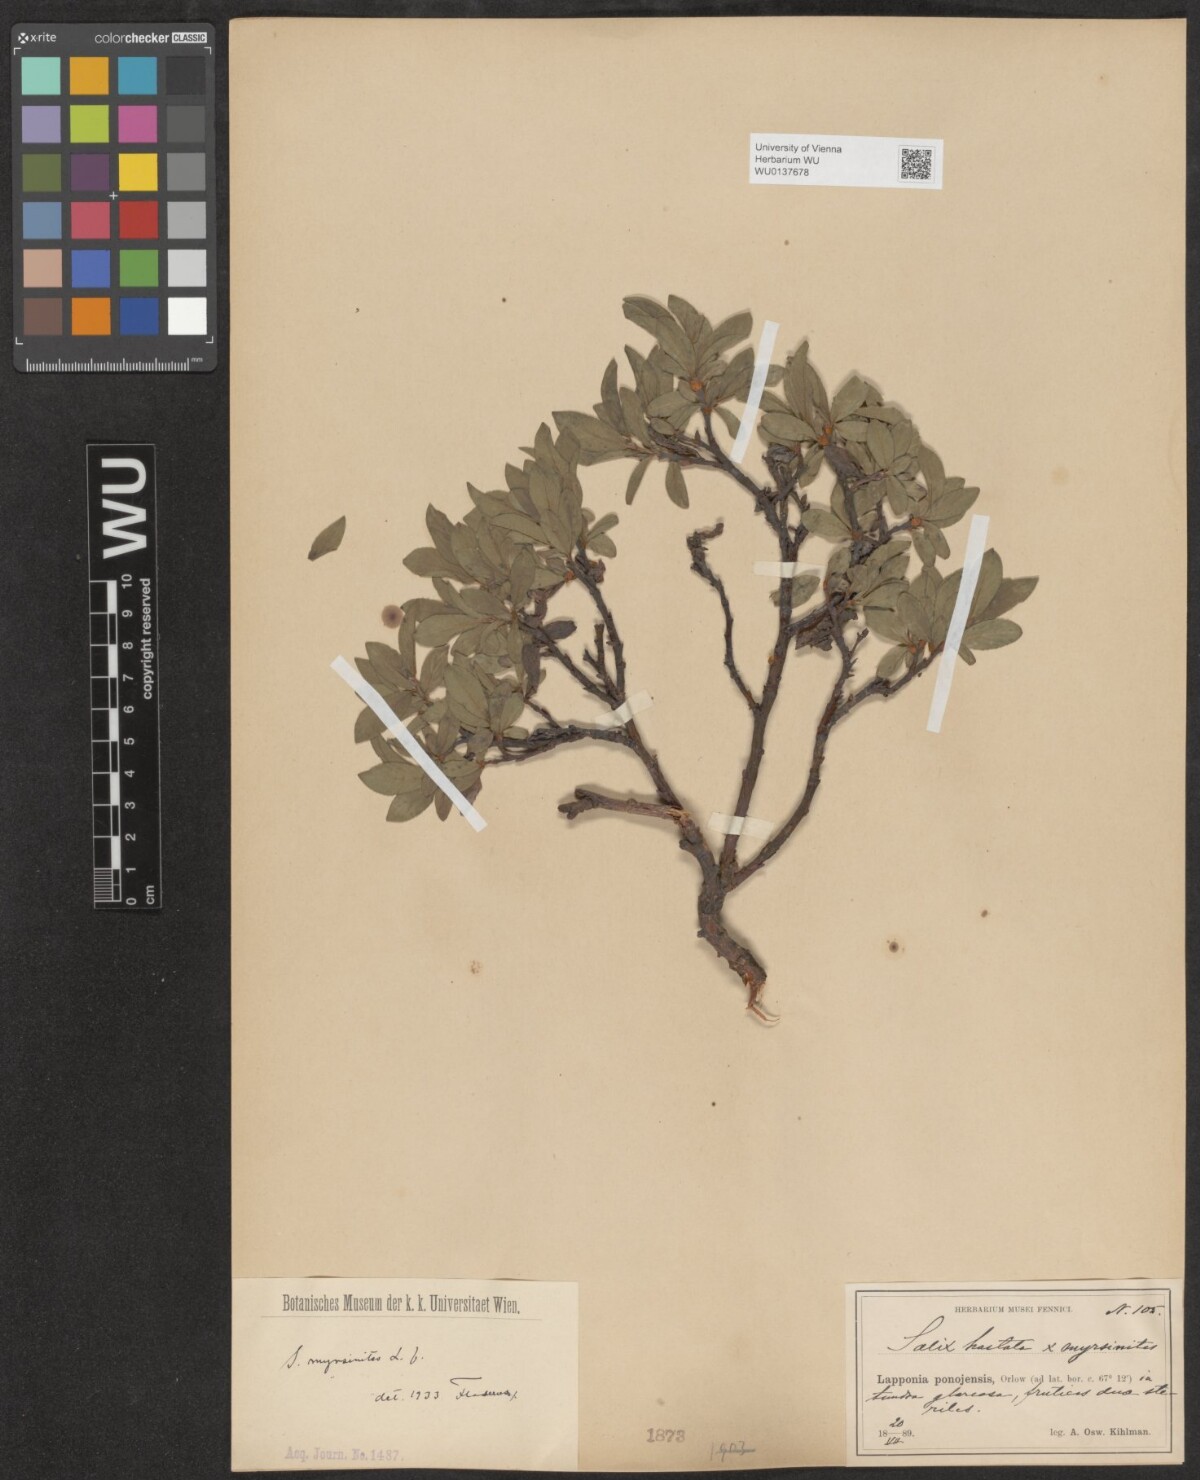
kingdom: Plantae
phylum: Tracheophyta
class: Magnoliopsida
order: Malpighiales
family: Salicaceae
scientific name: Salicaceae
